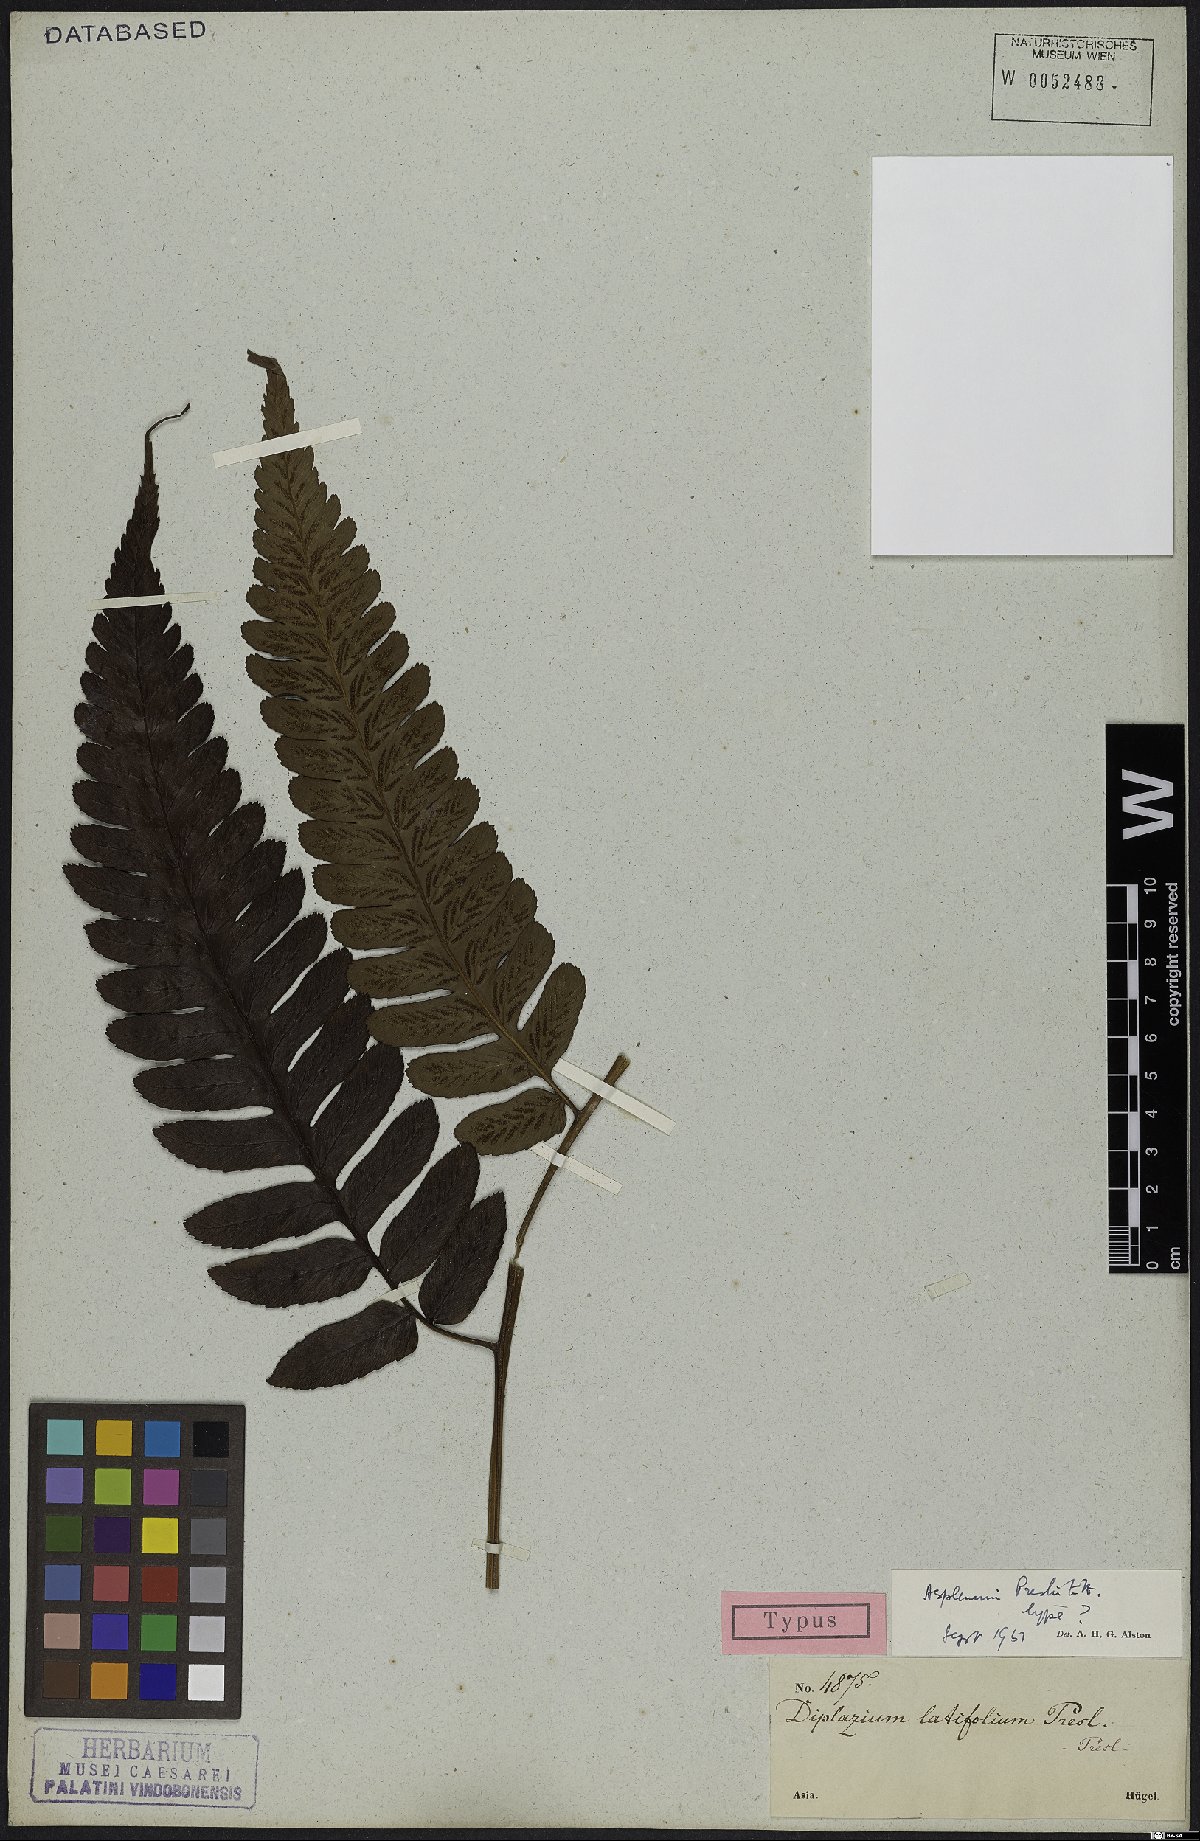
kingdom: Plantae
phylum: Tracheophyta
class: Polypodiopsida
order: Polypodiales
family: Aspleniaceae
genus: Asplenium
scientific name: Asplenium preslii
